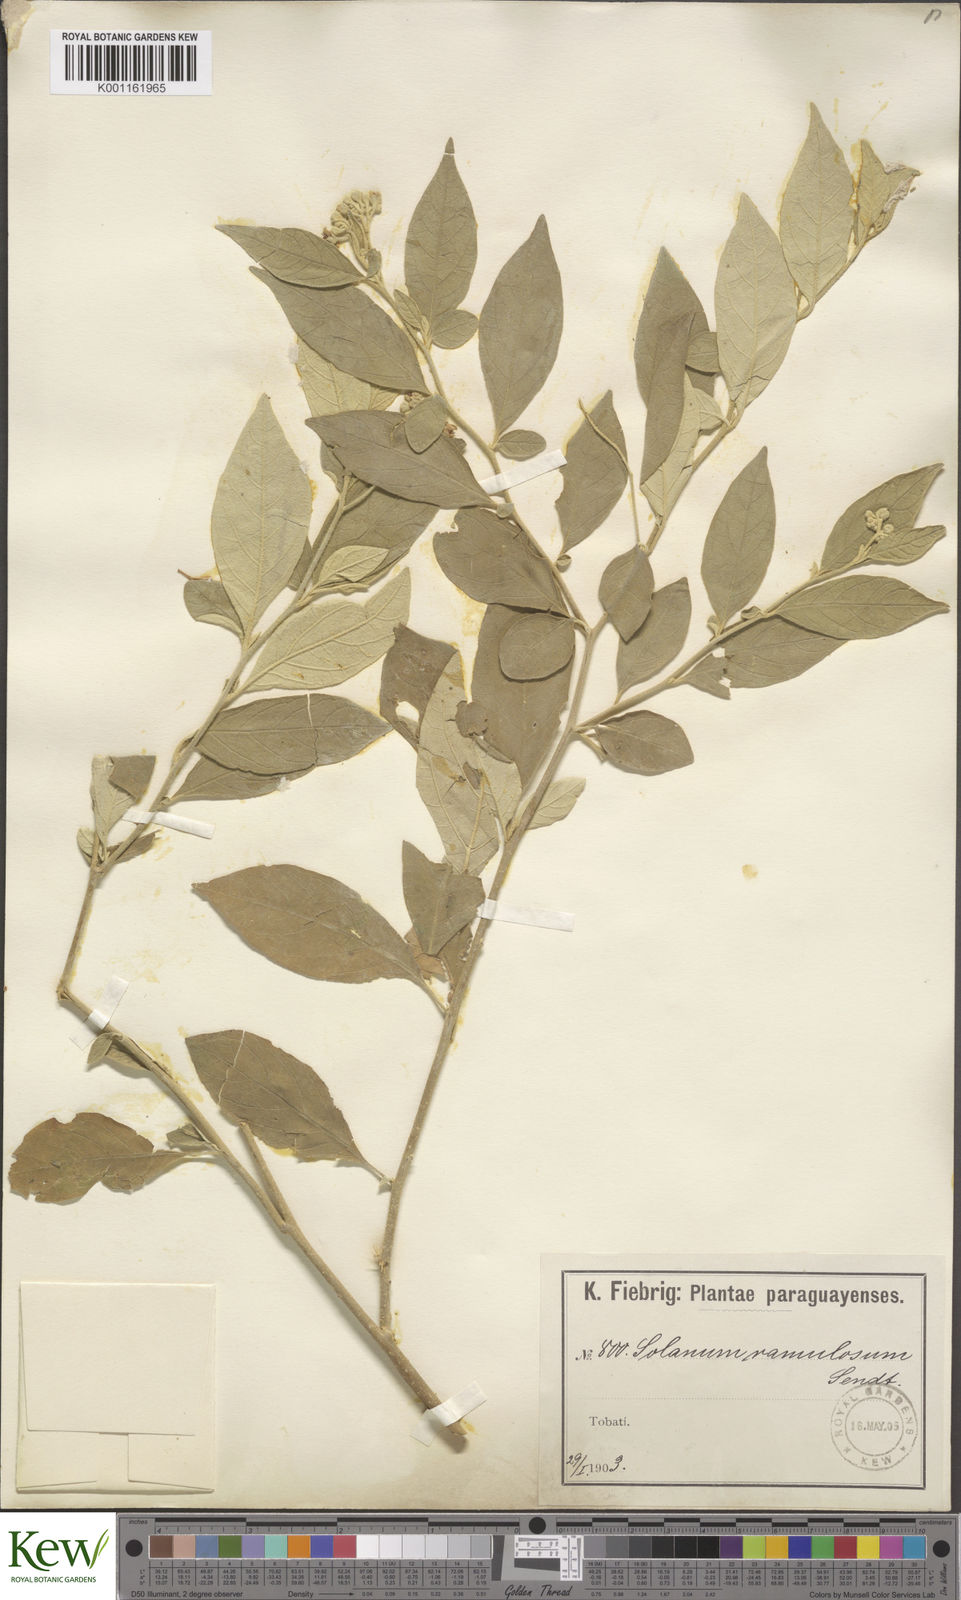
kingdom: Plantae
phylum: Tracheophyta
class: Magnoliopsida
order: Solanales
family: Solanaceae
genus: Solanum
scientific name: Solanum ramulosum
